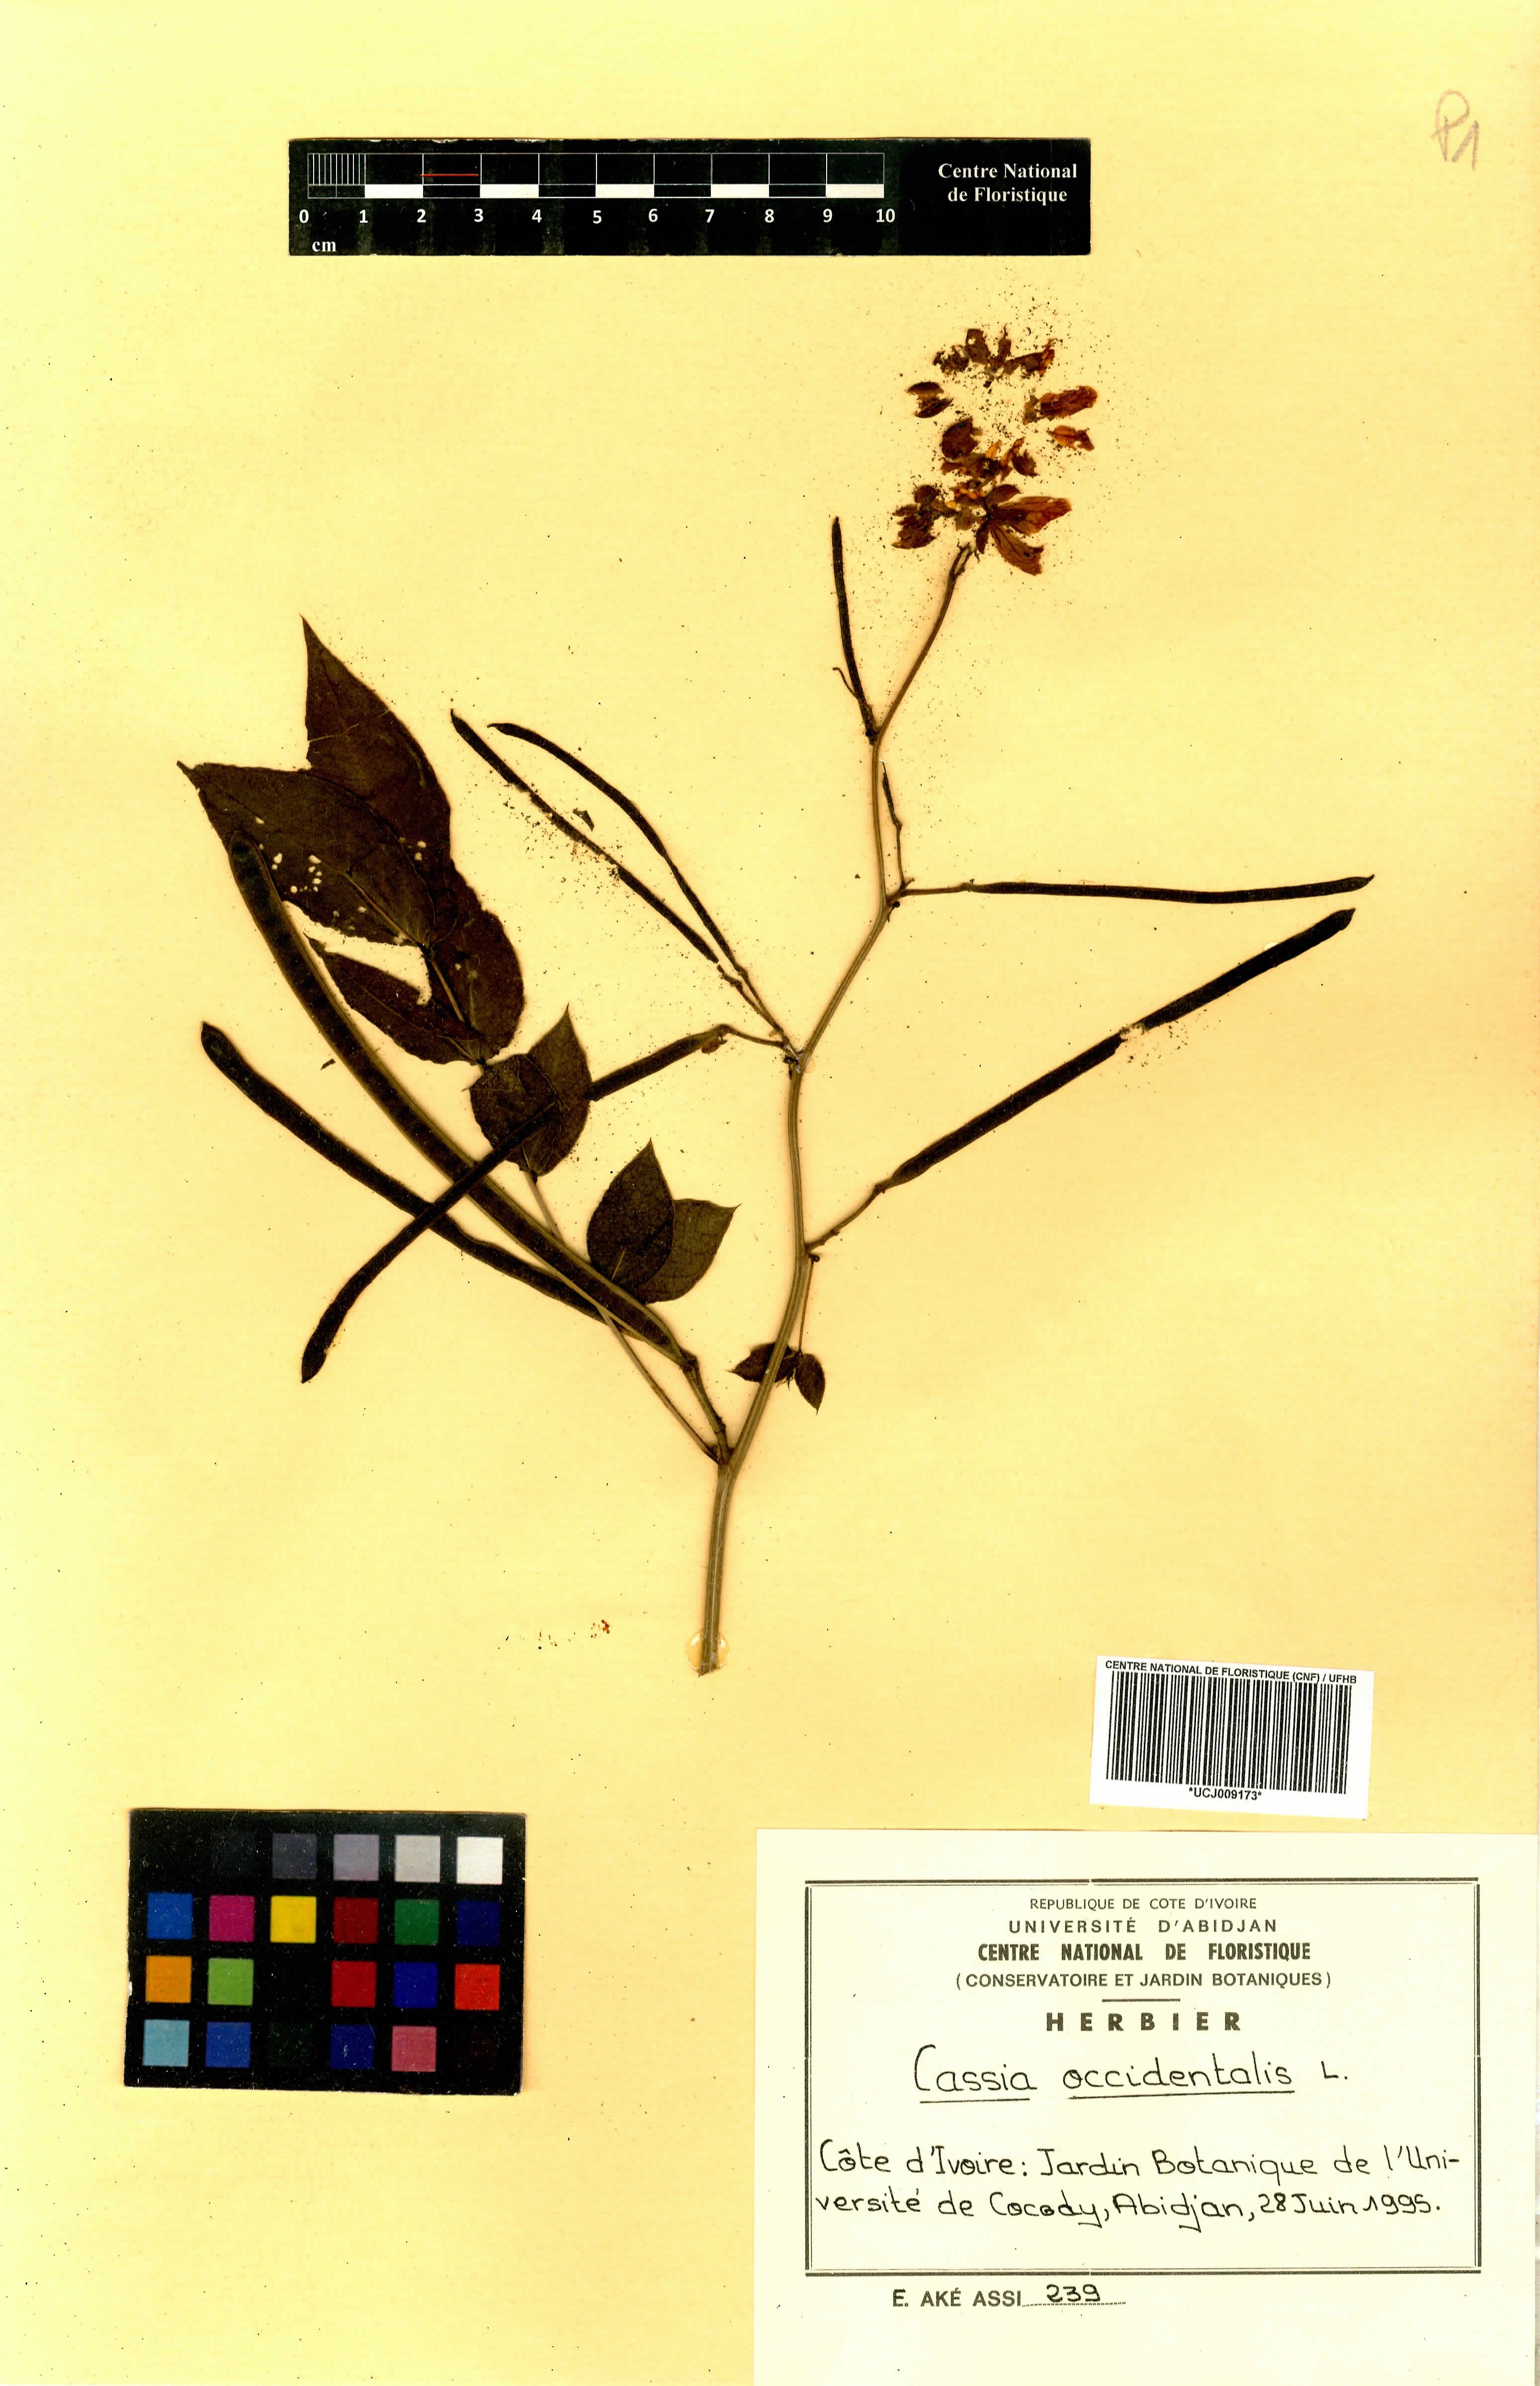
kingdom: Plantae
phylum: Tracheophyta
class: Magnoliopsida
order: Fabales
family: Fabaceae
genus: Senna
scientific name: Senna occidentalis
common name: Septicweed
